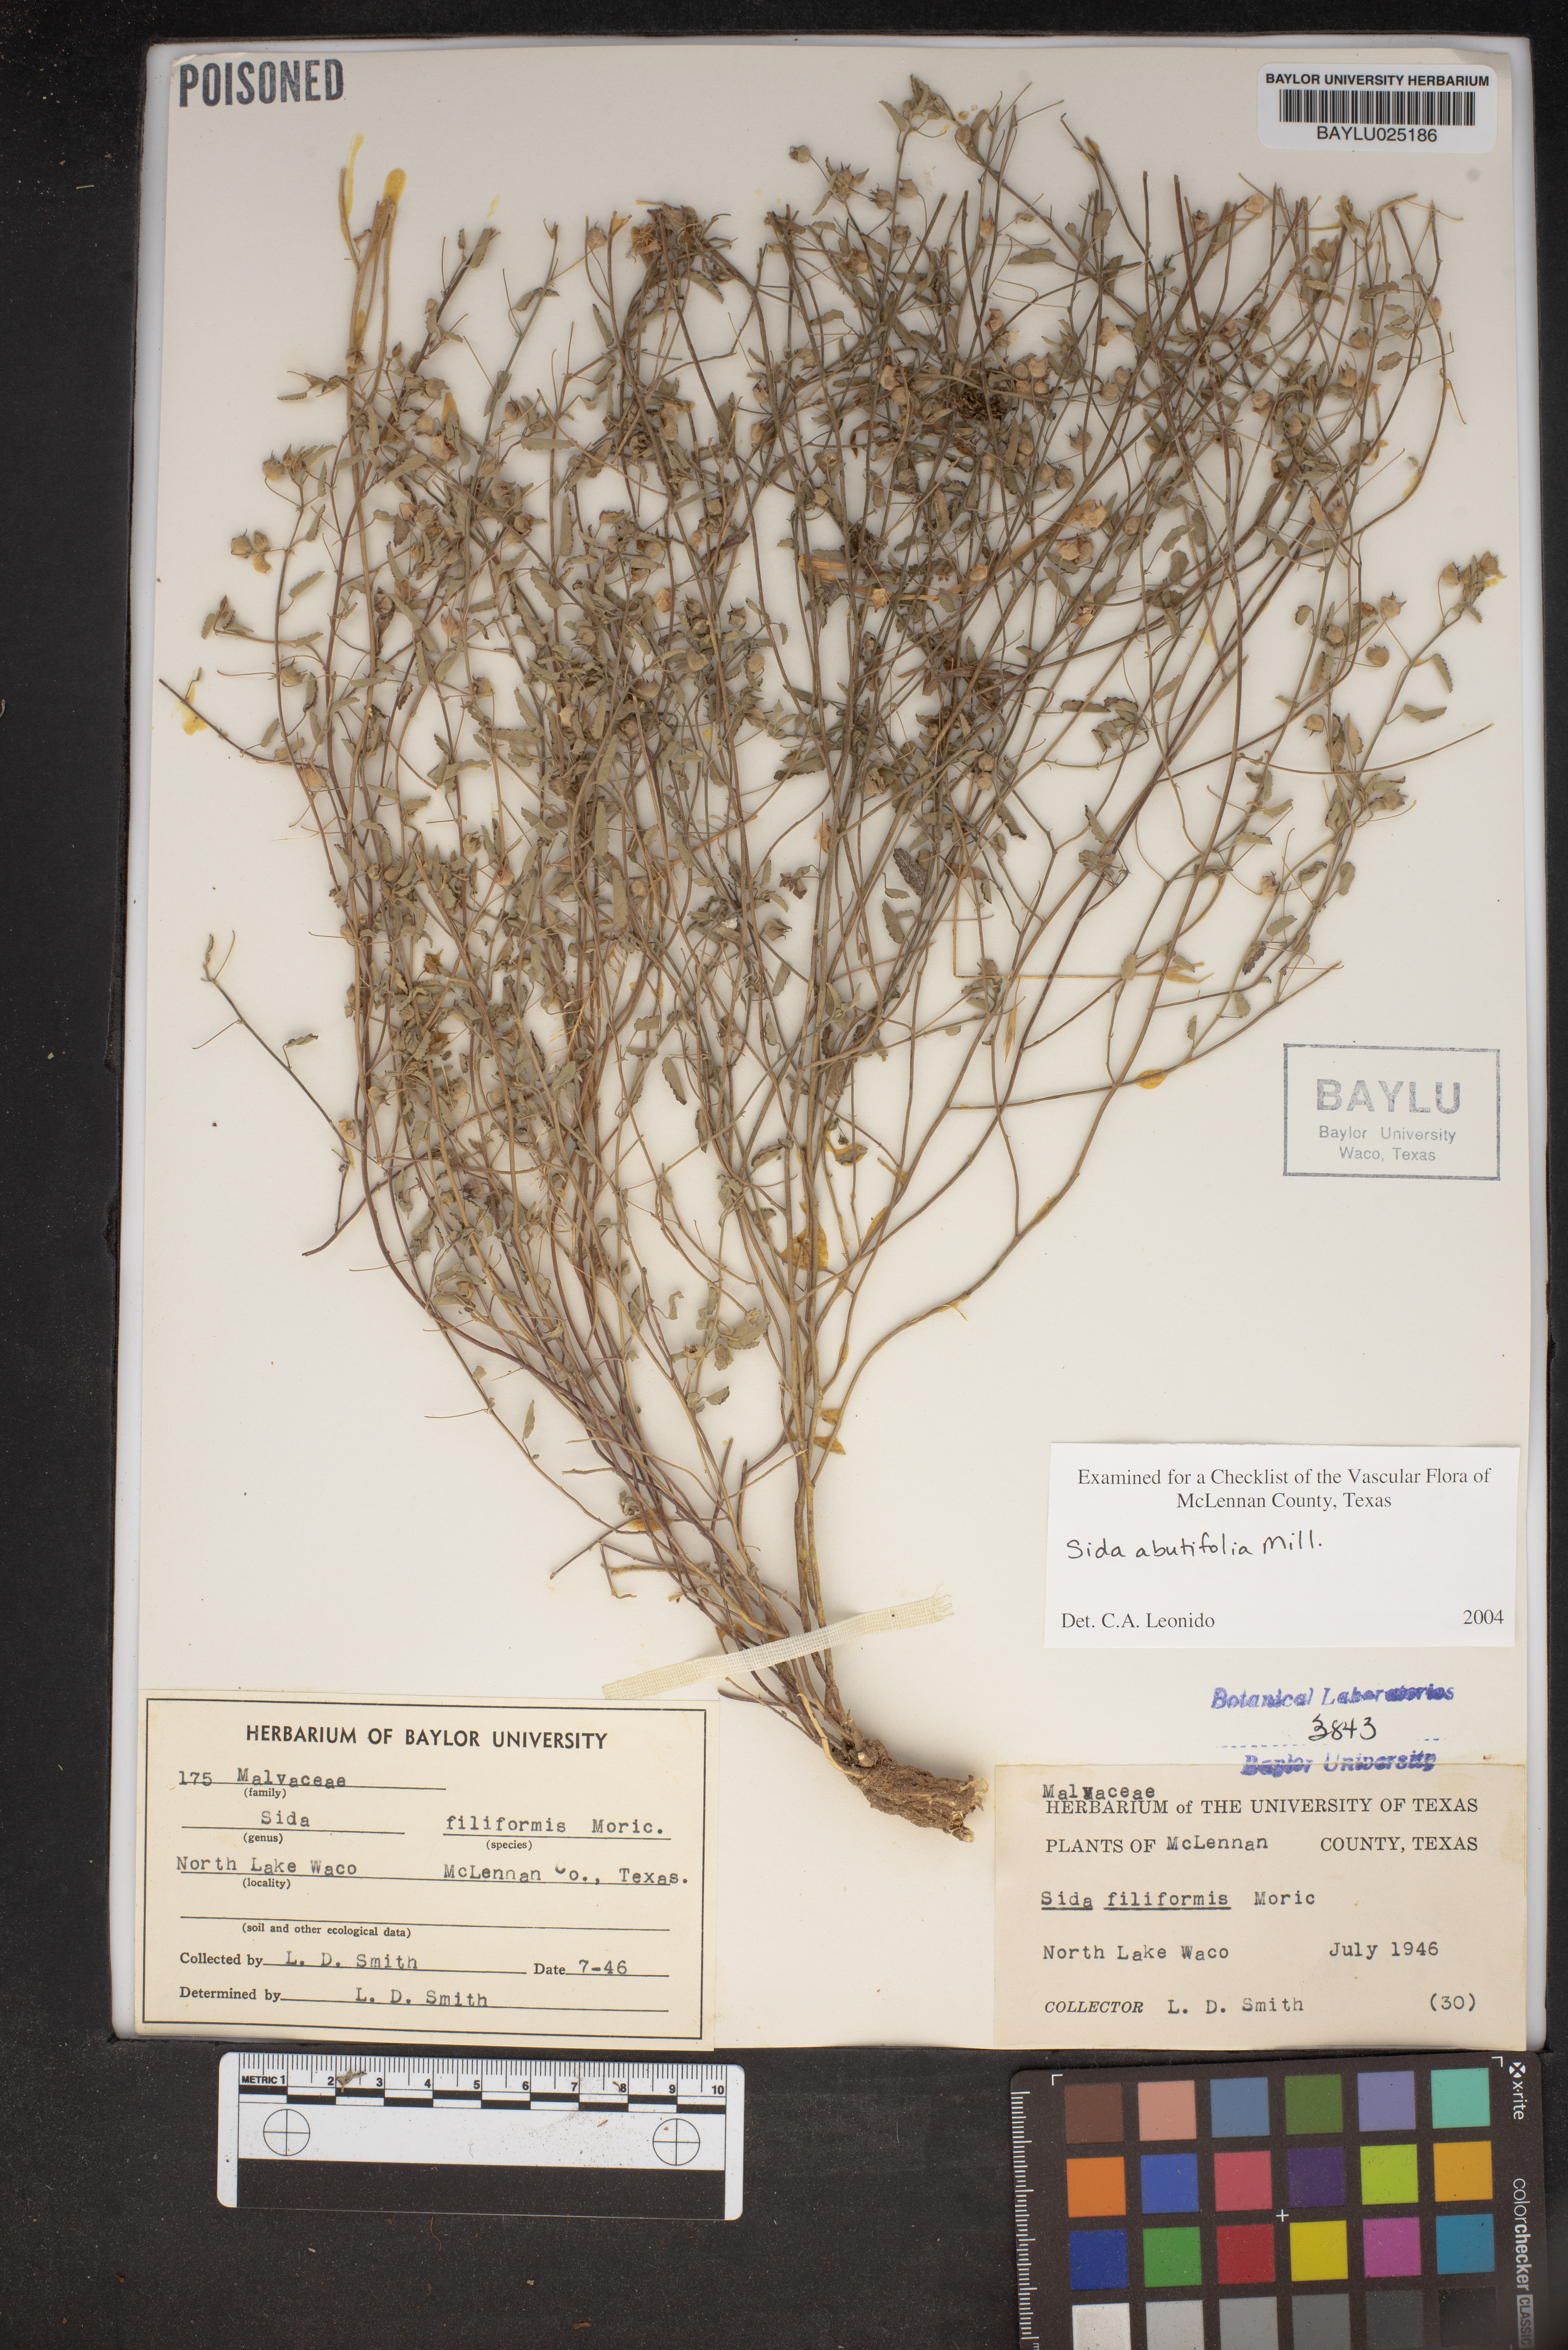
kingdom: Plantae
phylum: Tracheophyta
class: Magnoliopsida
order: Malvales
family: Malvaceae
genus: Sida
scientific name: Sida abutilifolia
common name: Spreading fanpetals
